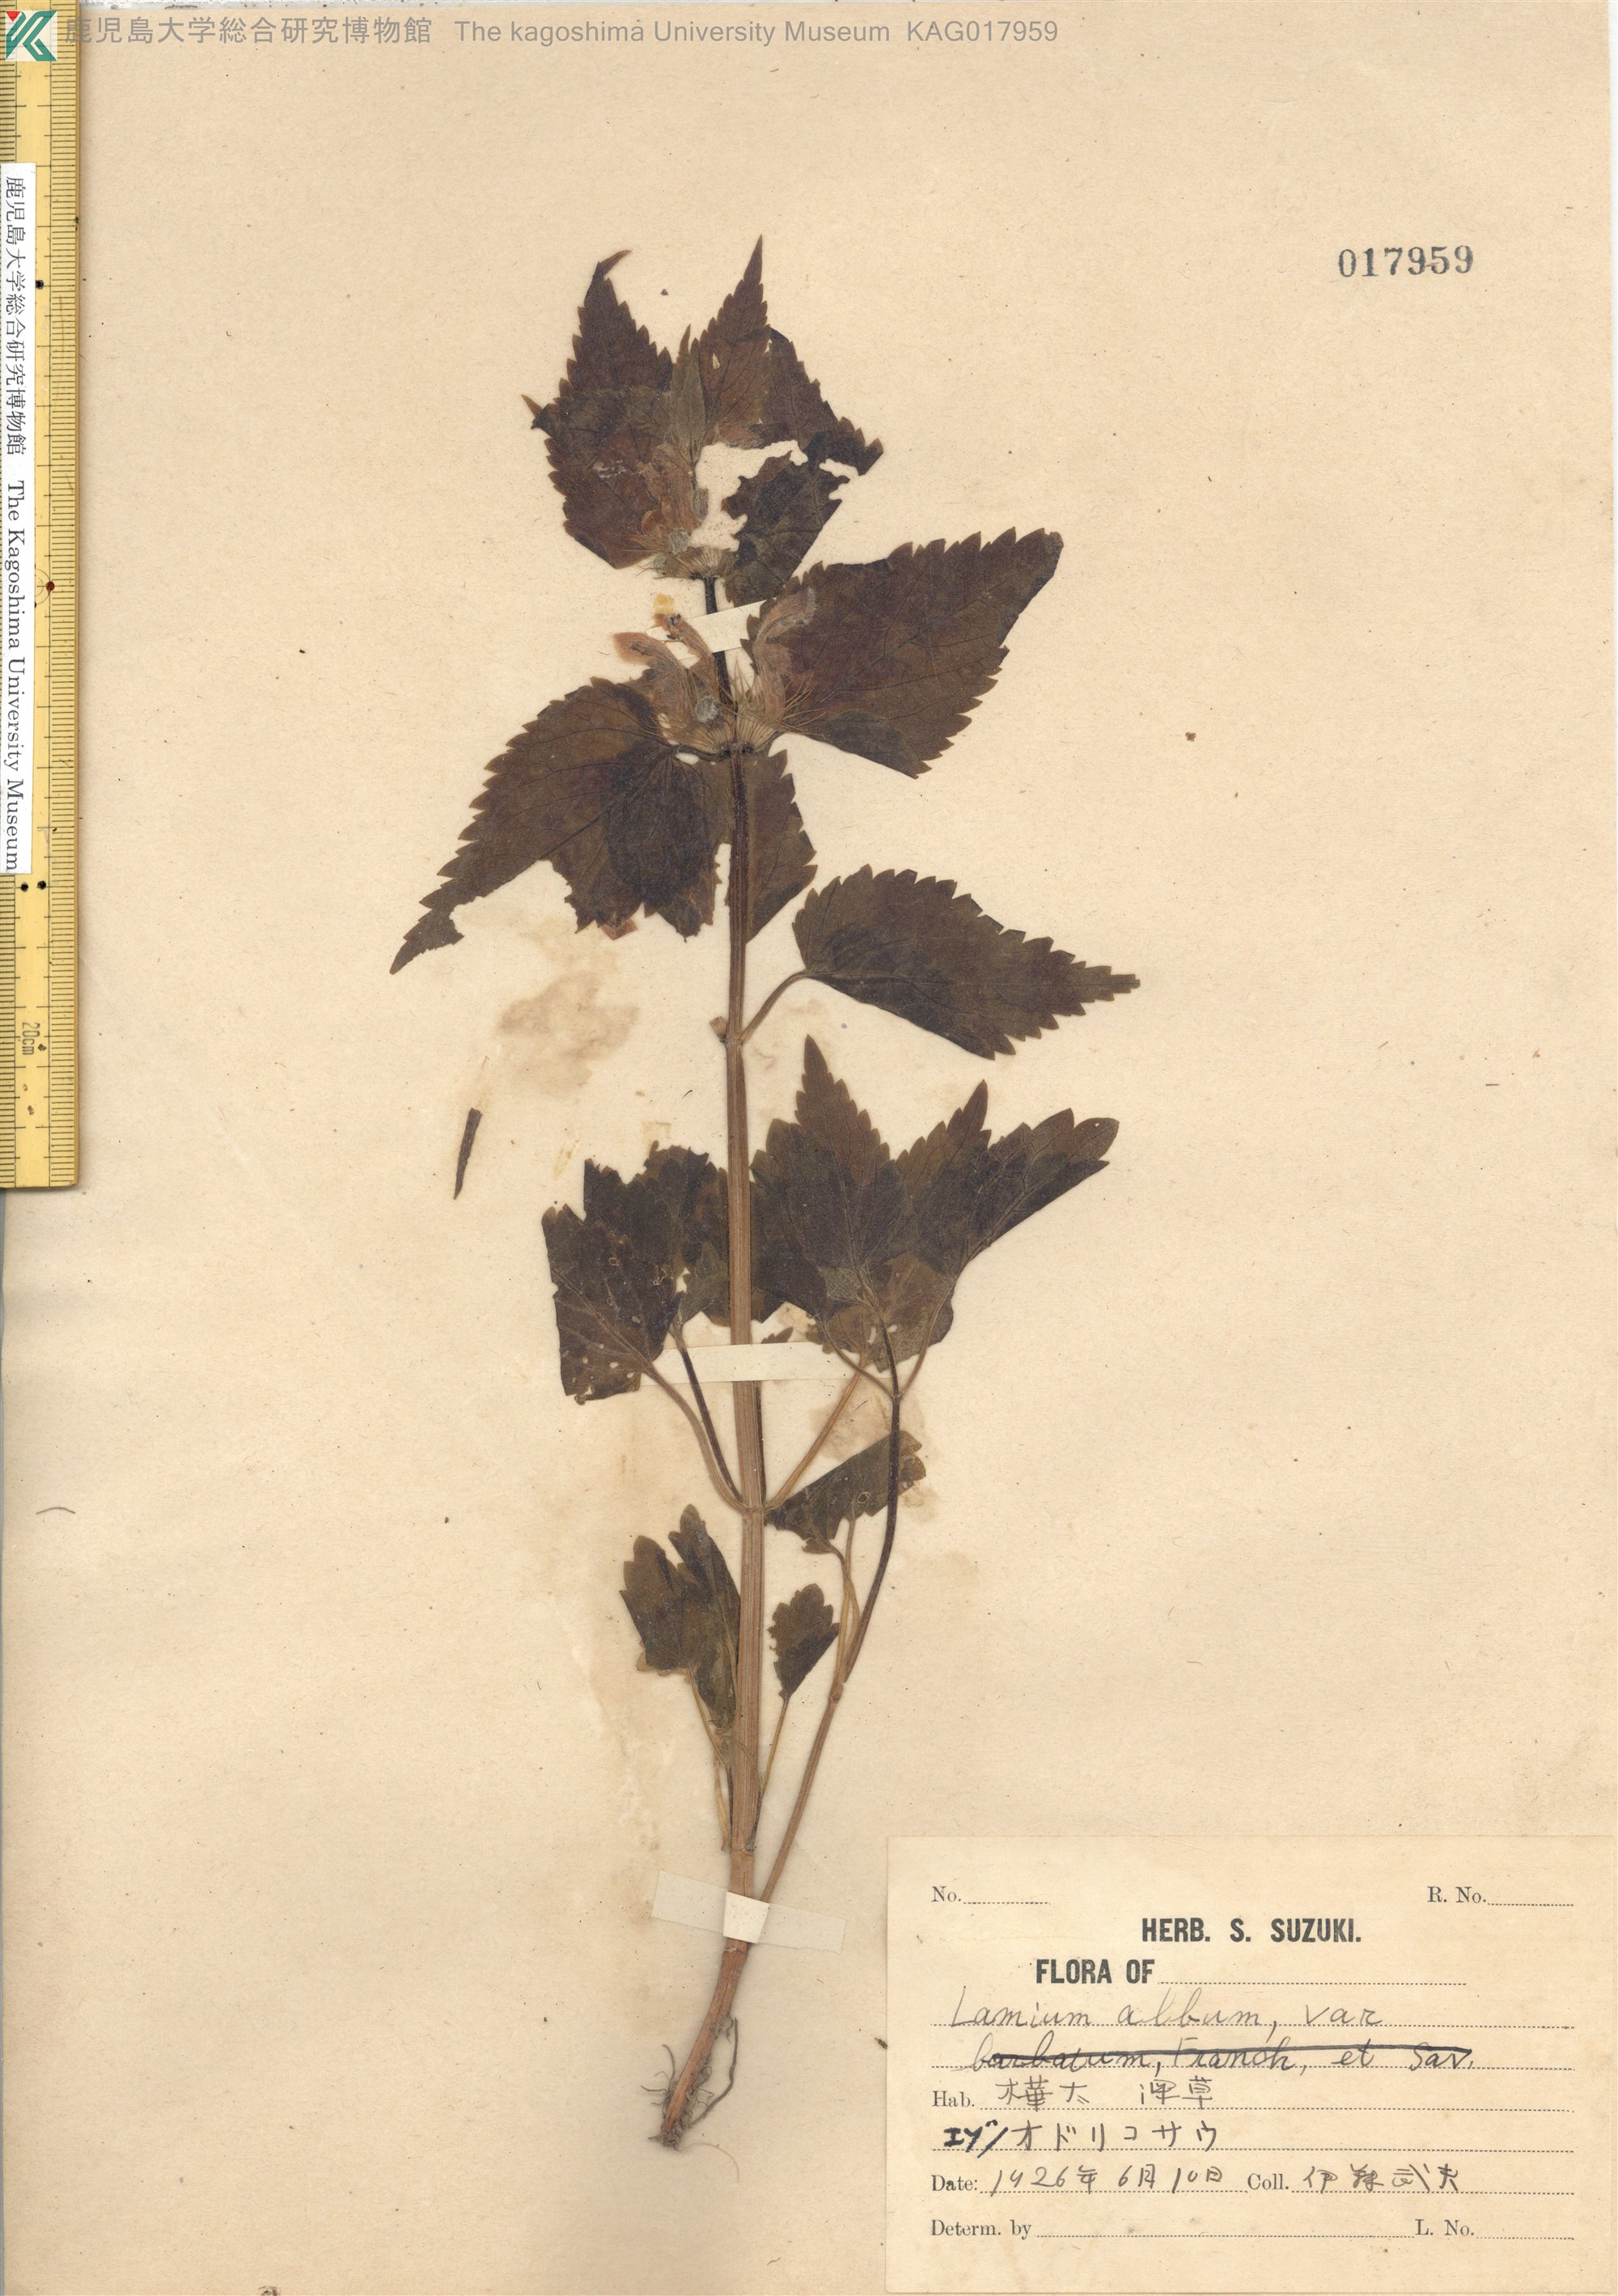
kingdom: Plantae
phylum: Tracheophyta
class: Magnoliopsida
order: Lamiales
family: Lamiaceae
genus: Lamium
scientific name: Lamium album
